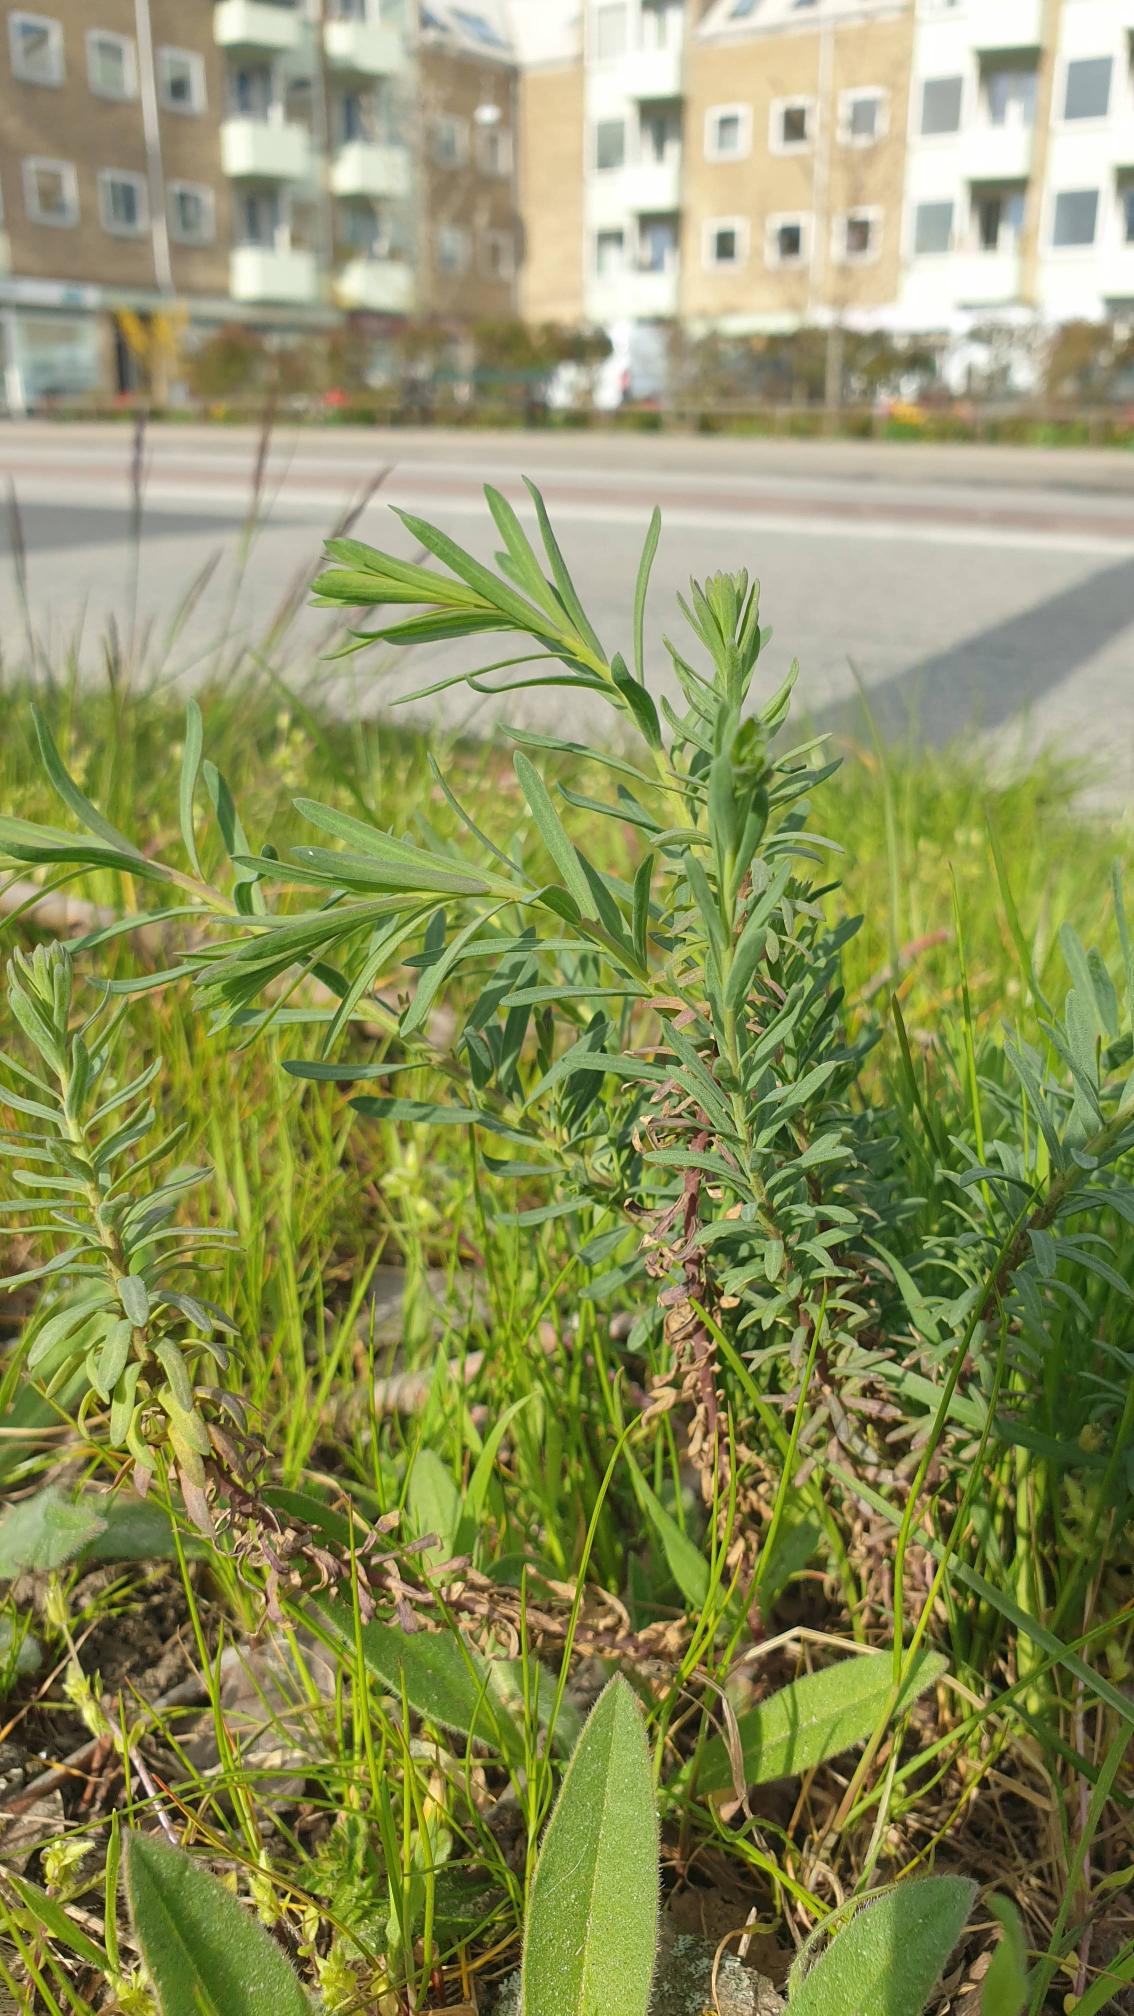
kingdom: Plantae
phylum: Tracheophyta
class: Magnoliopsida
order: Malpighiales
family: Linaceae
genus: Linum
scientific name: Linum austriacum
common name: Østrigsk hør
